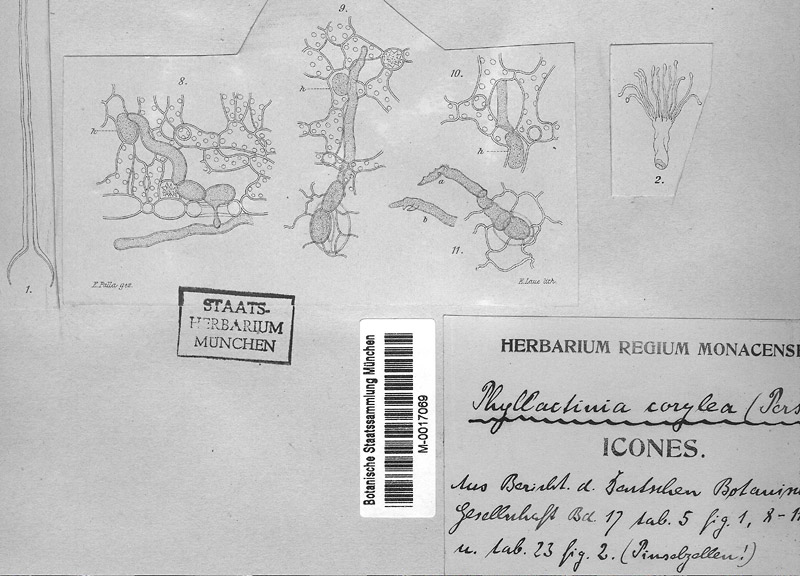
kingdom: Fungi
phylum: Ascomycota
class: Leotiomycetes
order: Helotiales
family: Erysiphaceae
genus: Phyllactinia
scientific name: Phyllactinia guttata
